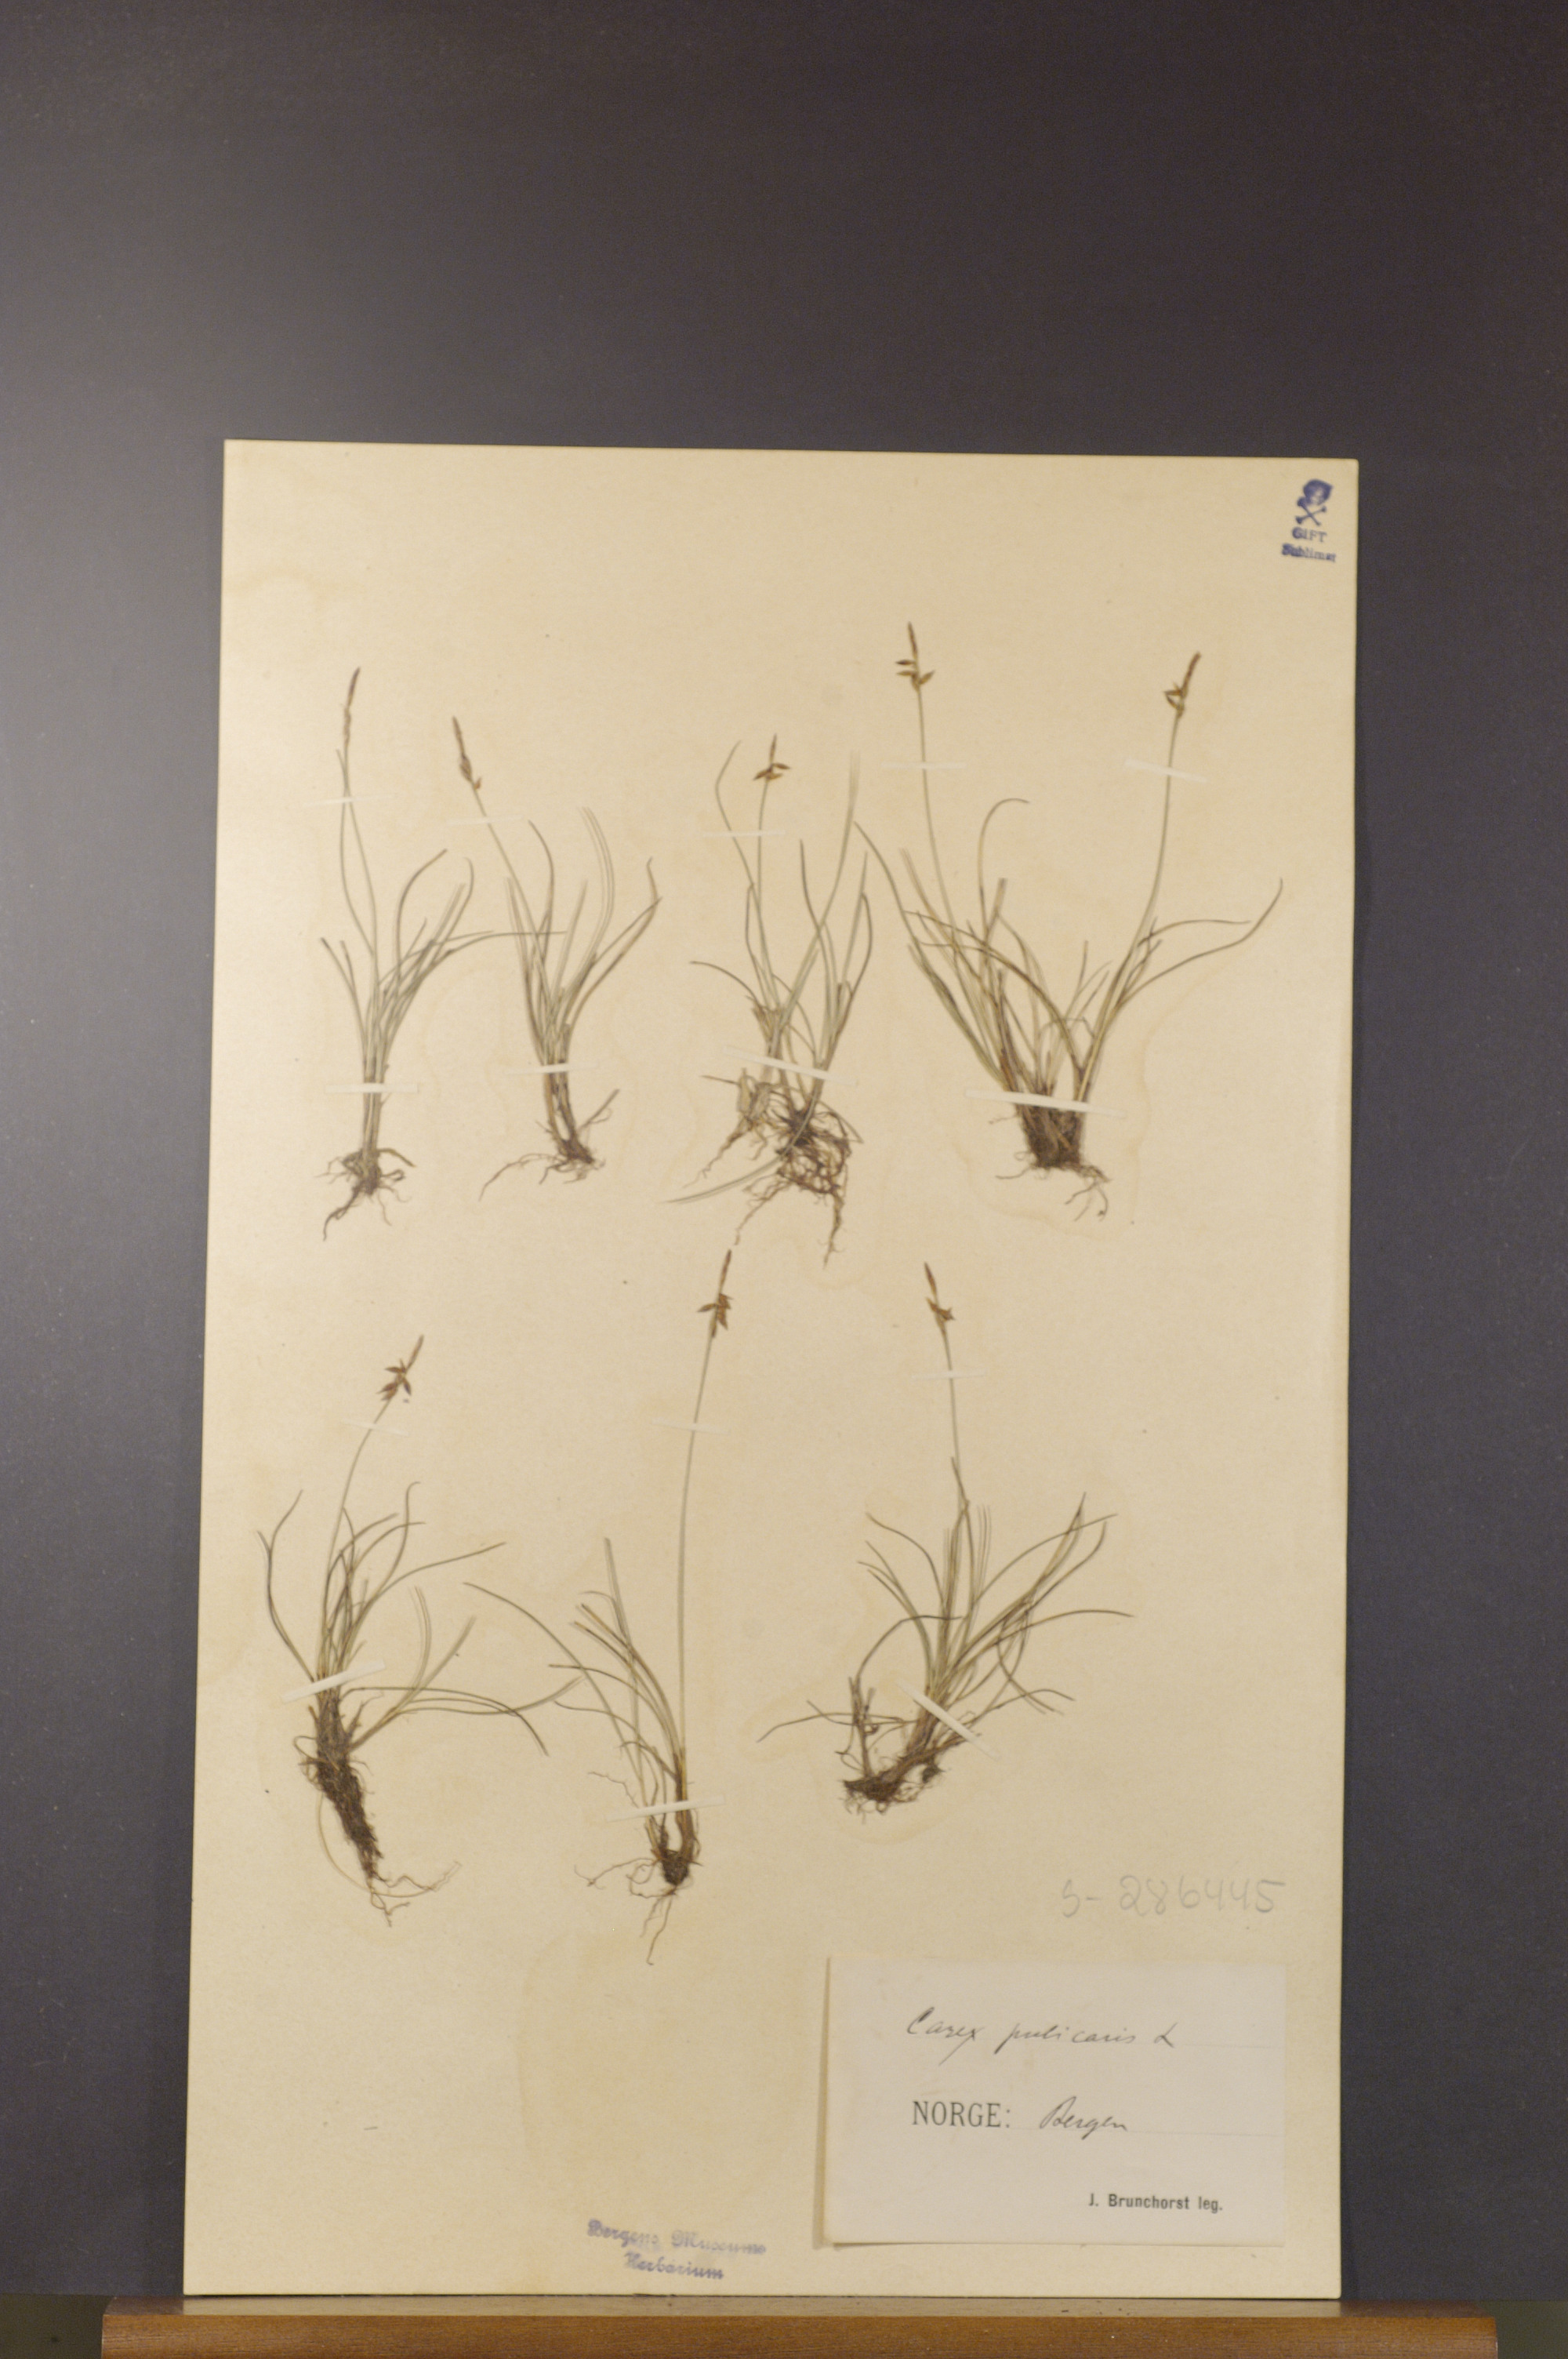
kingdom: Plantae
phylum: Tracheophyta
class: Liliopsida
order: Poales
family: Cyperaceae
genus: Carex
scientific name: Carex pulicaris
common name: Flea sedge
